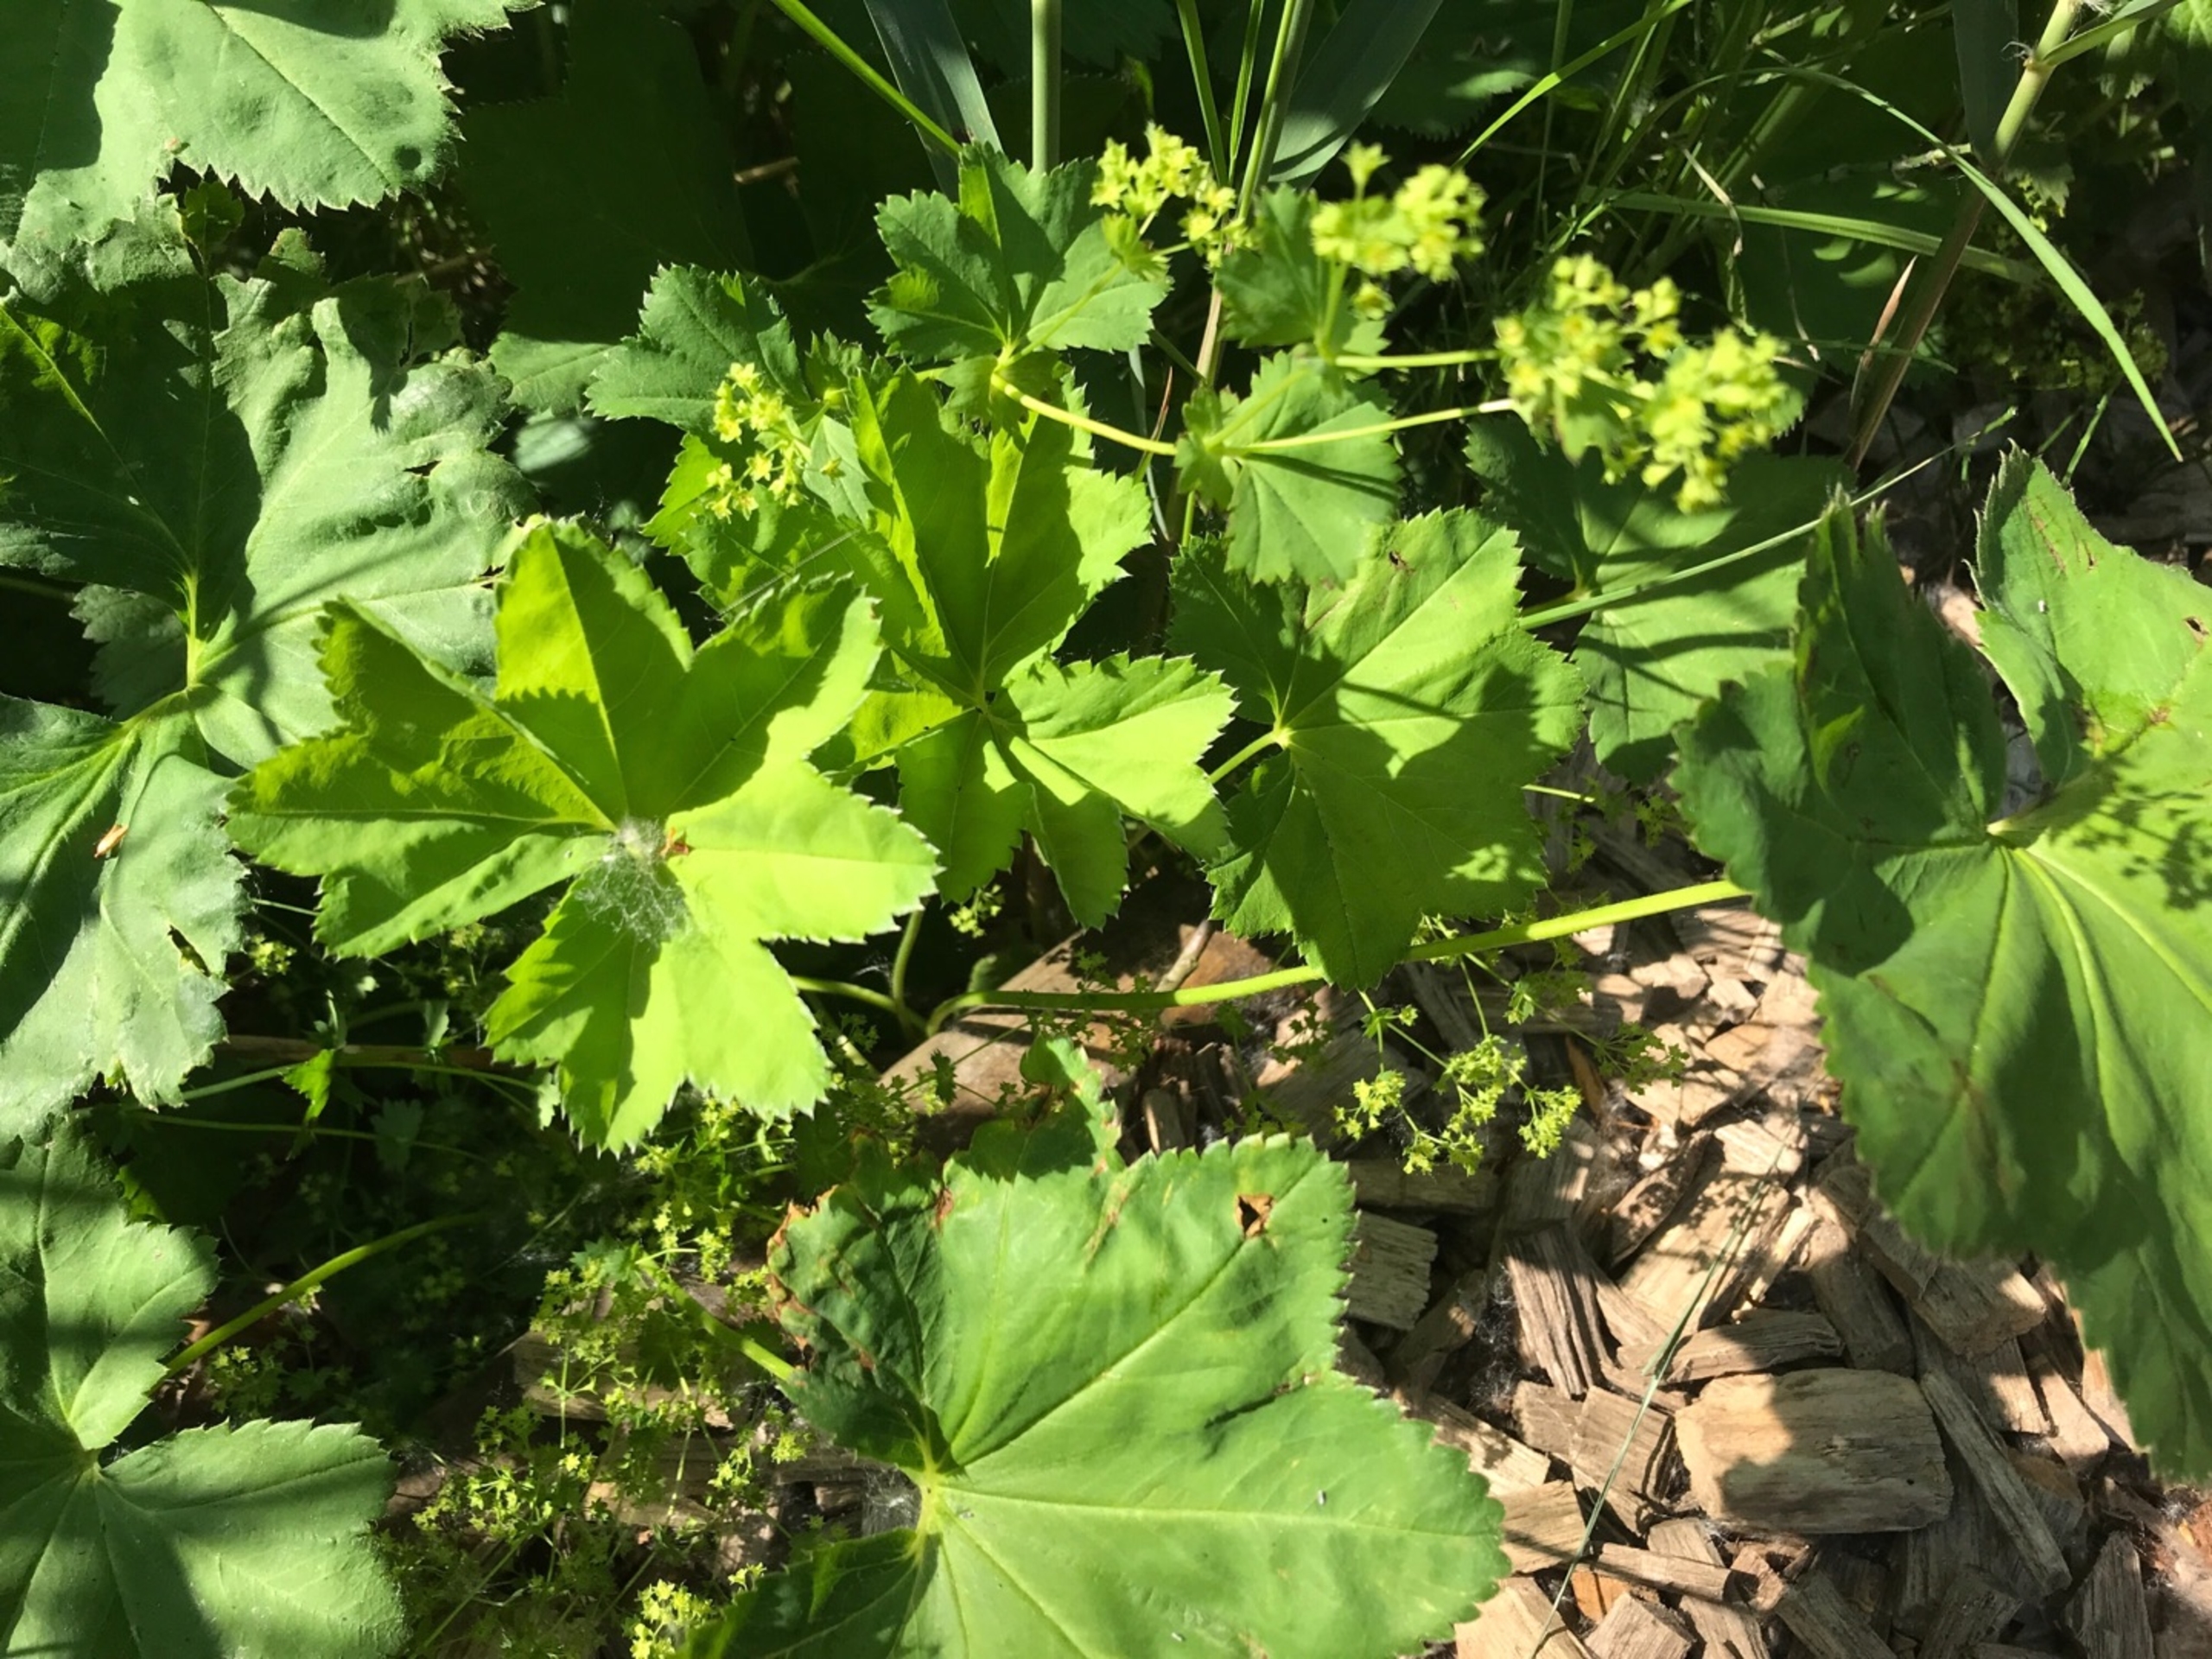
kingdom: Plantae
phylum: Tracheophyta
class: Magnoliopsida
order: Rosales
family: Rosaceae
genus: Alchemilla
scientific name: Alchemilla glabra
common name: Glat løvefod
